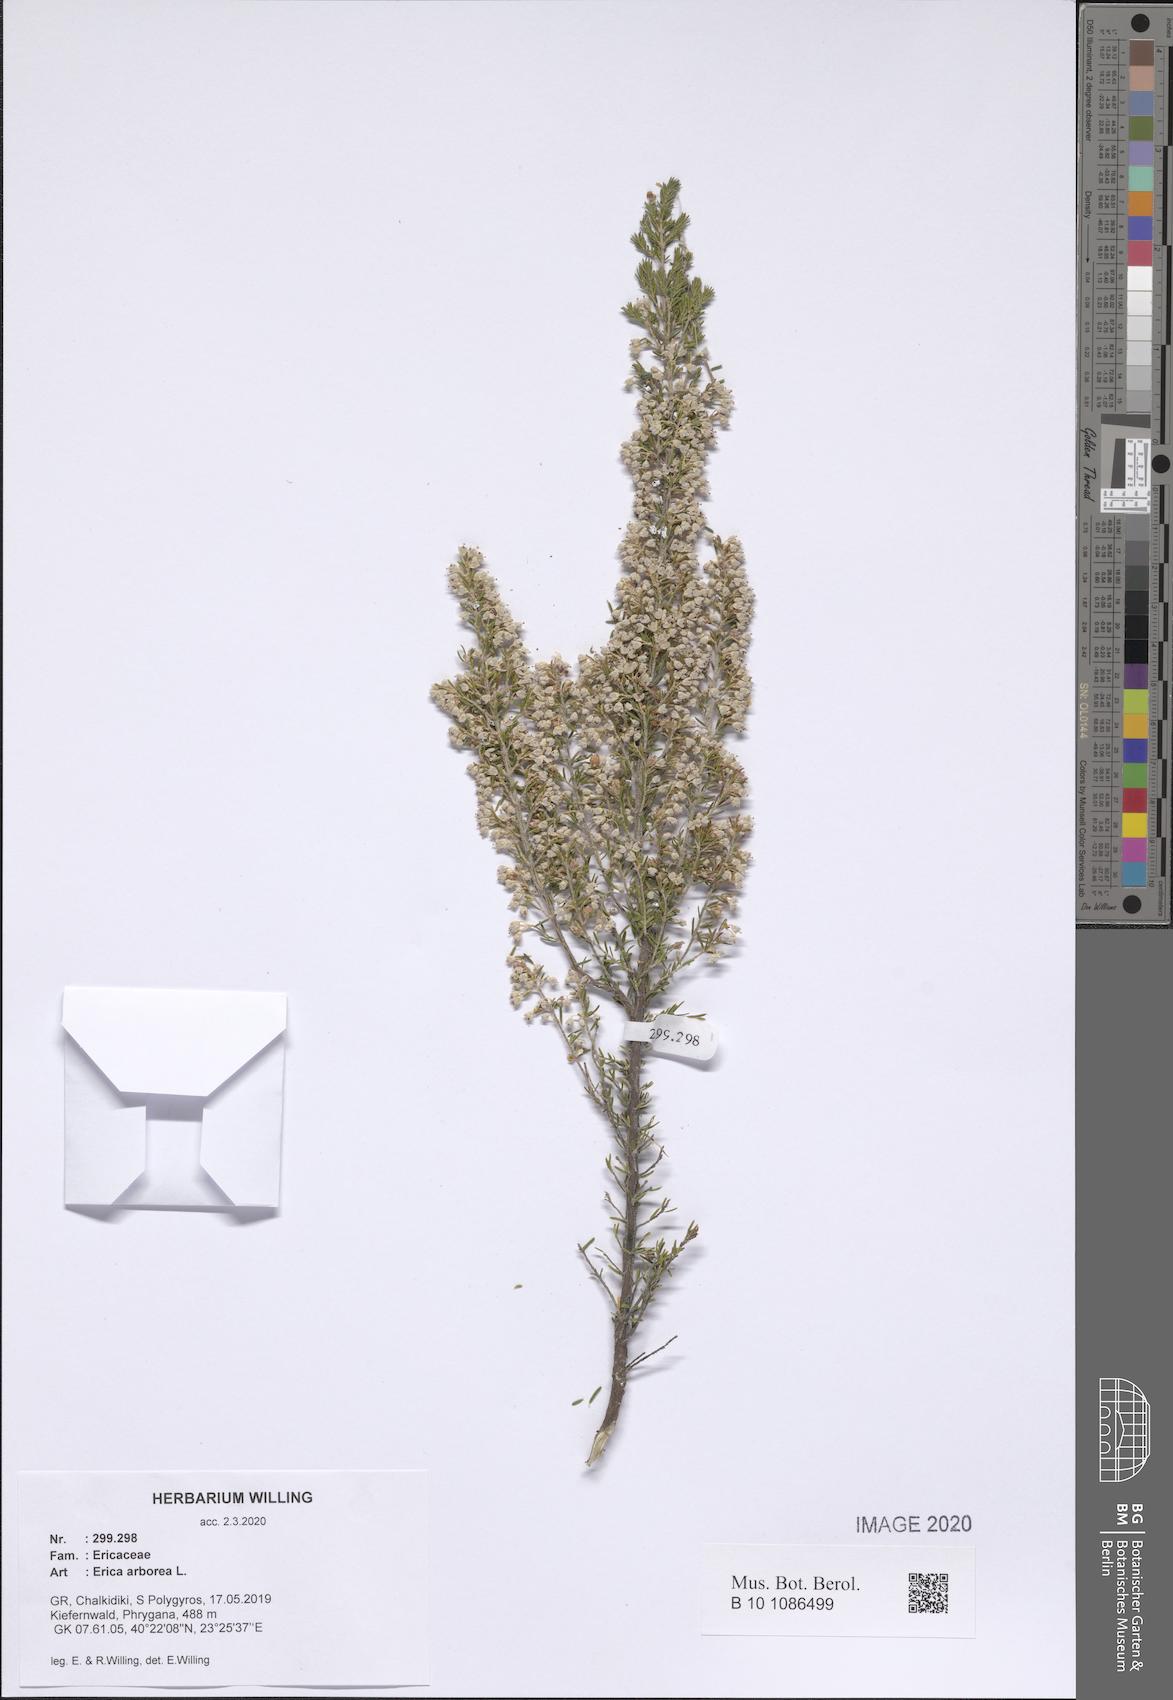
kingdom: Plantae
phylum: Tracheophyta
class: Magnoliopsida
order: Ericales
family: Ericaceae
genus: Erica
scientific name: Erica arborea
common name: Tree heath
